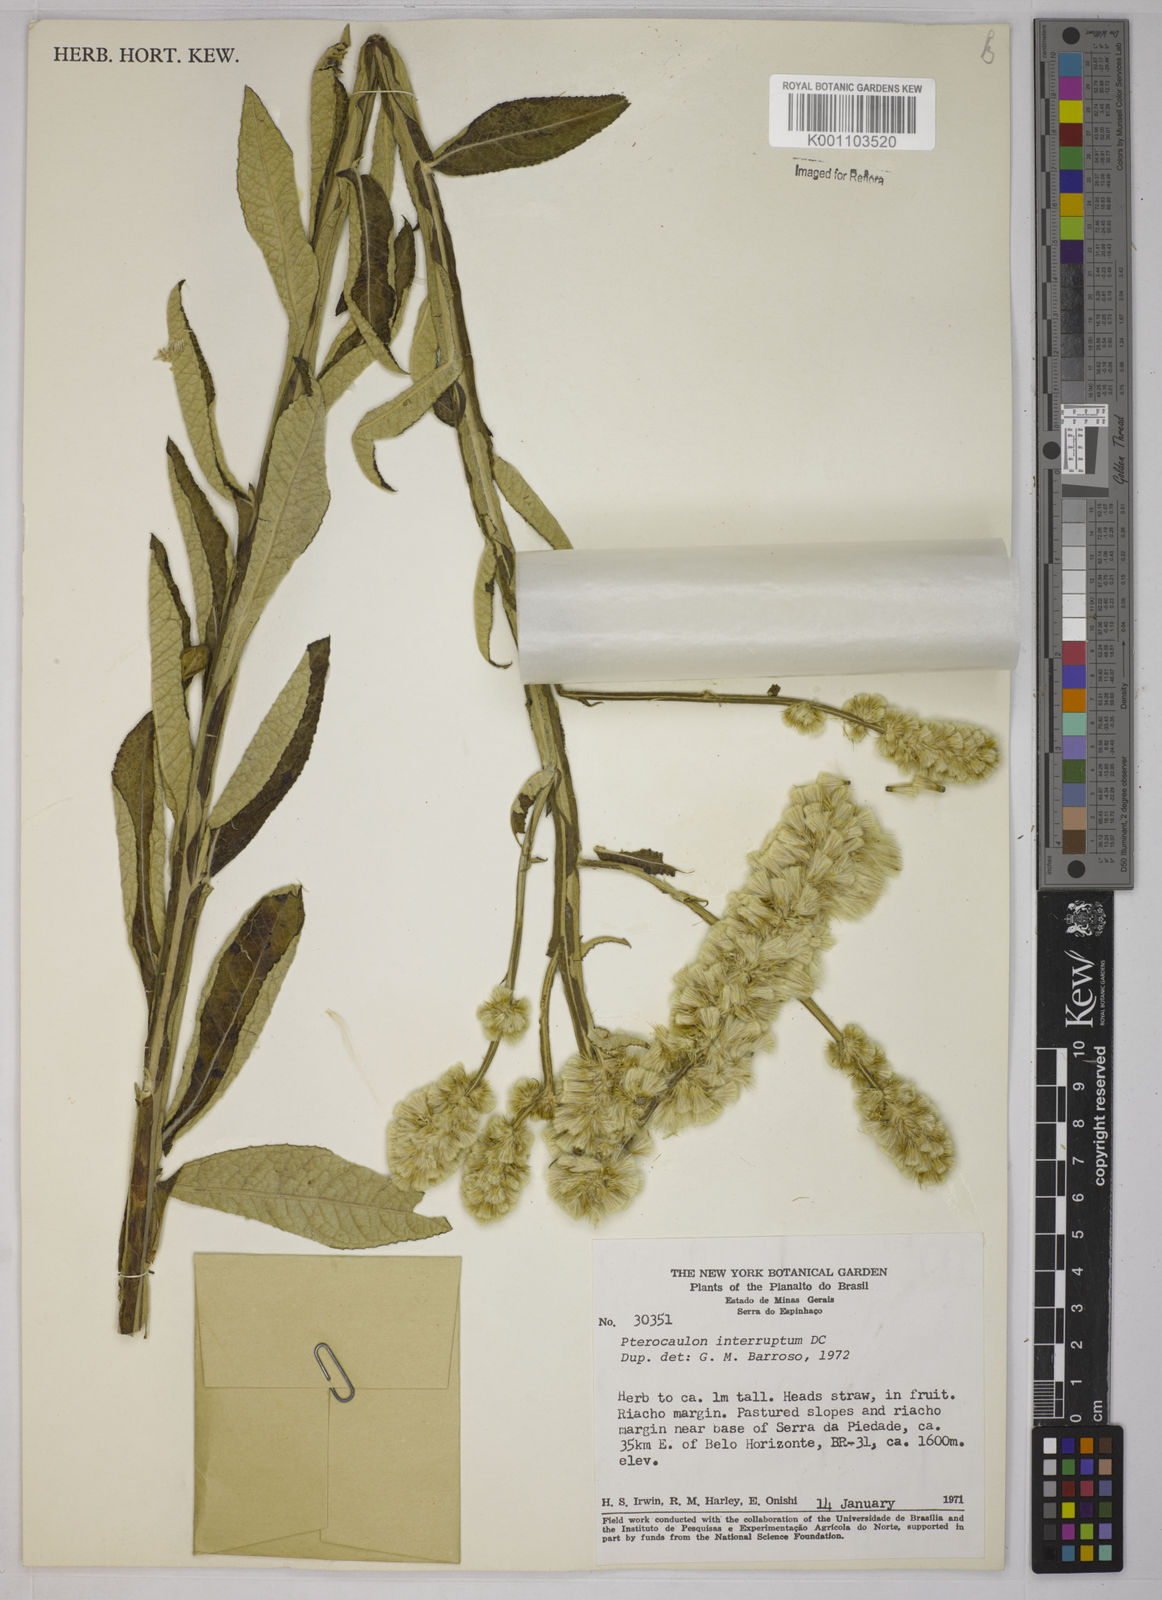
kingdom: Plantae
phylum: Tracheophyta
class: Magnoliopsida
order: Asterales
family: Asteraceae
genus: Pterocaulon
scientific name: Pterocaulon
